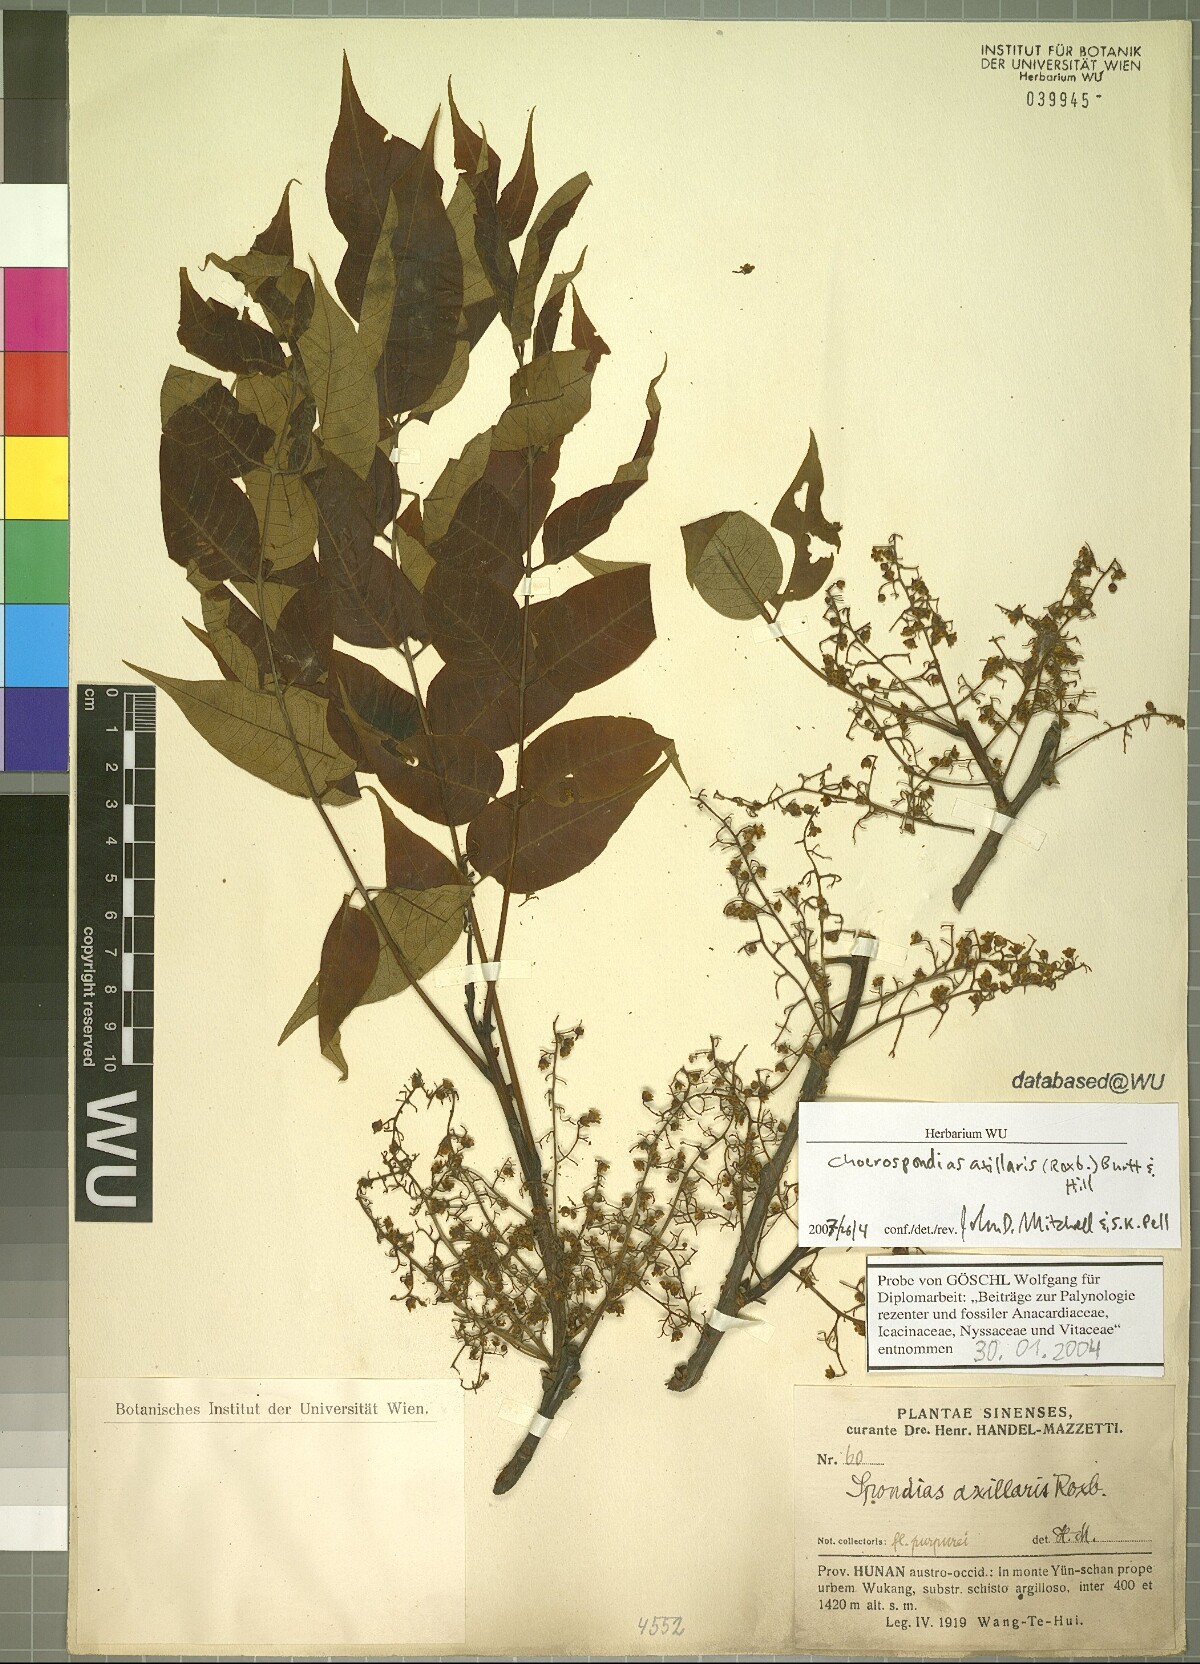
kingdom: Plantae
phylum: Tracheophyta
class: Magnoliopsida
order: Sapindales
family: Anacardiaceae
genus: Choerospondias
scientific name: Choerospondias axillaris
